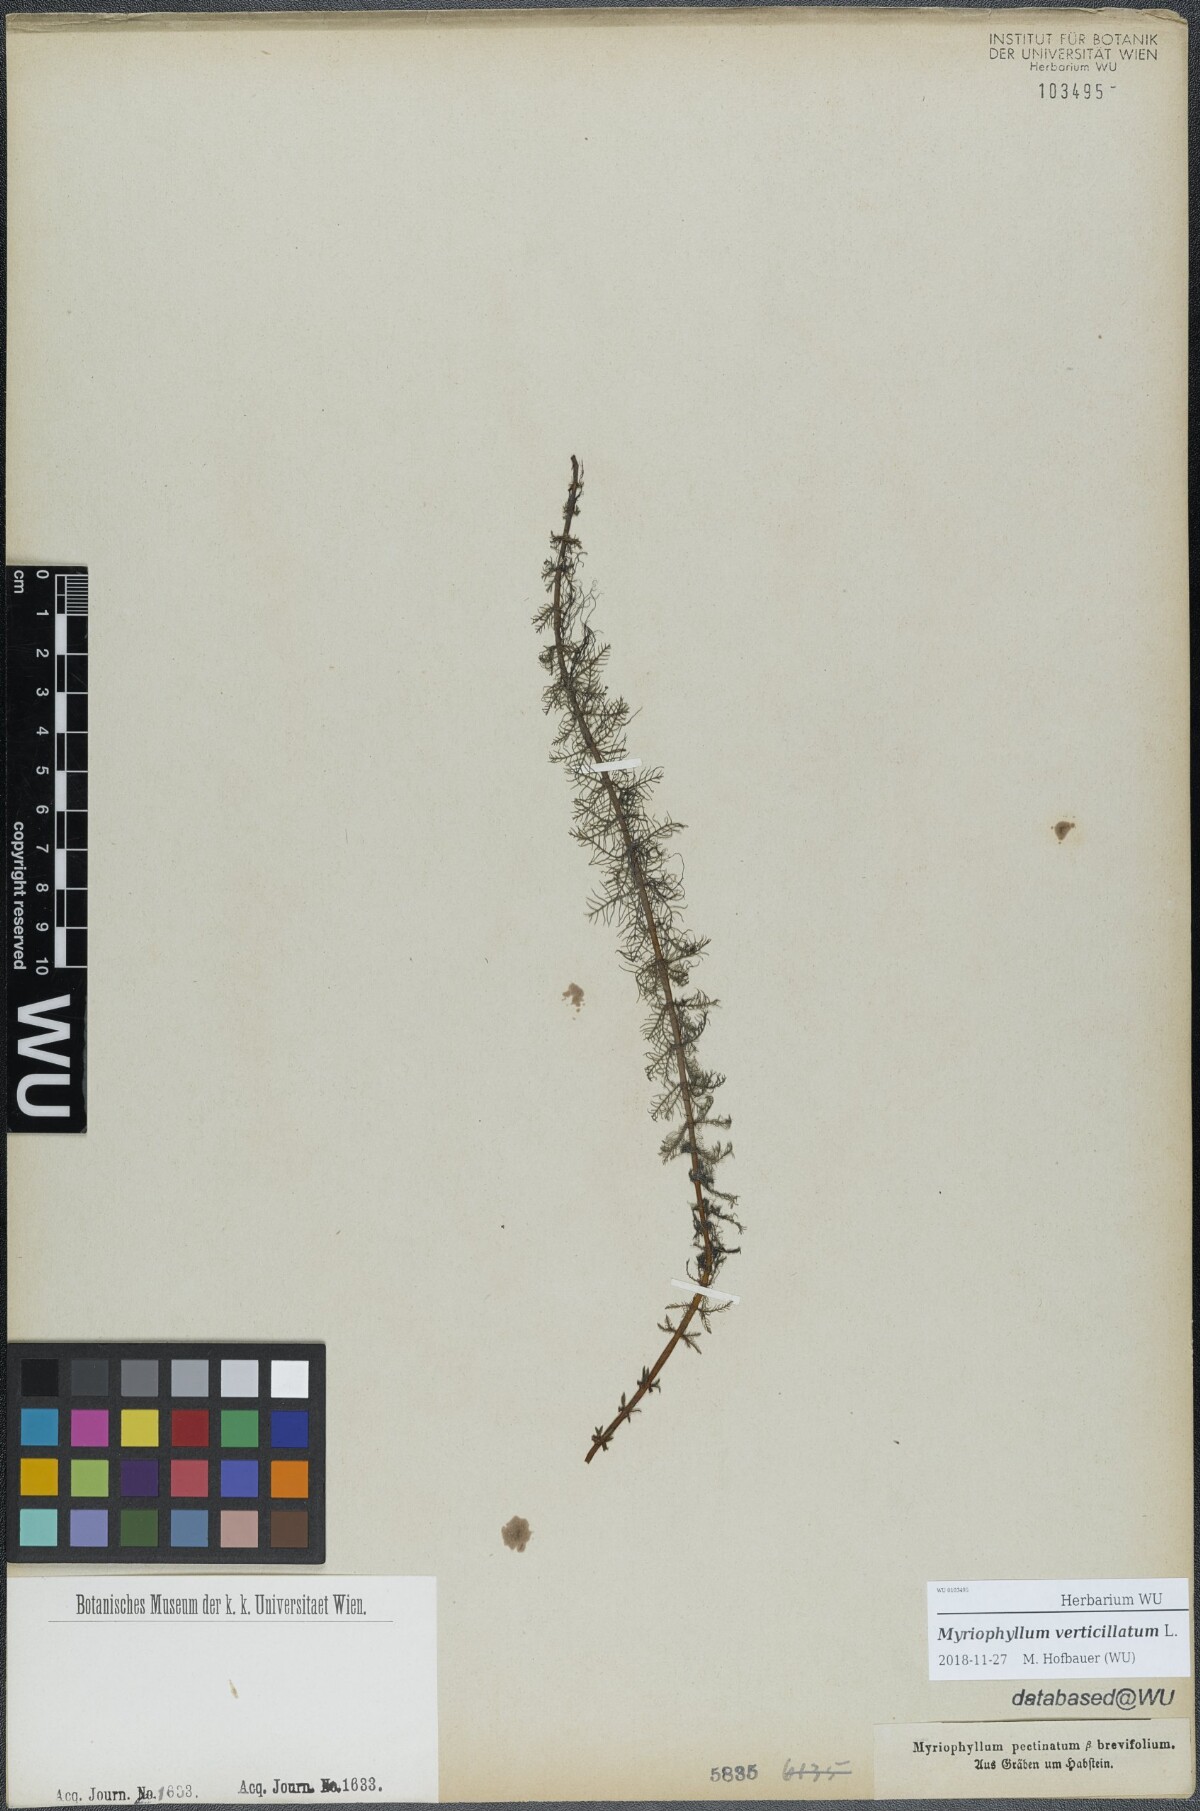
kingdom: Plantae
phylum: Tracheophyta
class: Magnoliopsida
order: Saxifragales
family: Haloragaceae
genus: Myriophyllum
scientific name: Myriophyllum verticillatum
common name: Whorled water-milfoil
